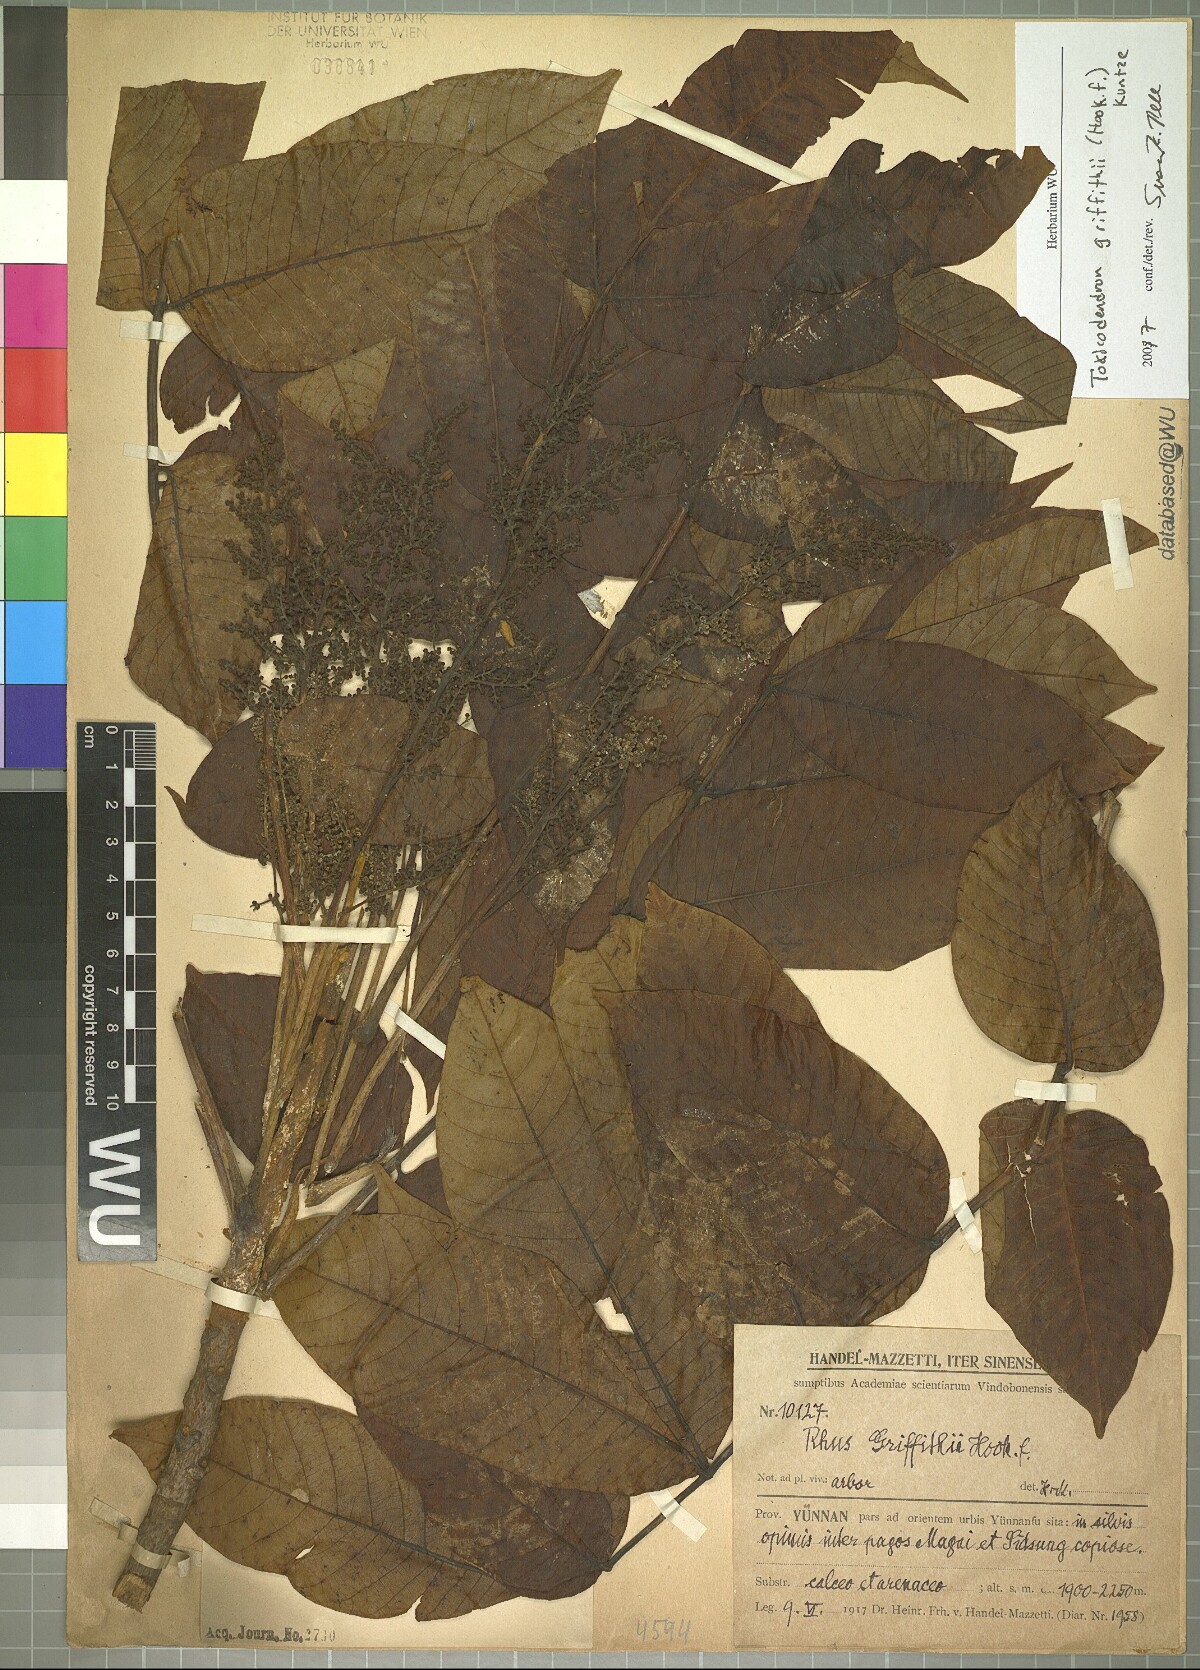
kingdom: Plantae
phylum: Tracheophyta
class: Magnoliopsida
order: Sapindales
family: Anacardiaceae
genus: Toxicodendron
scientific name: Toxicodendron griffithii
